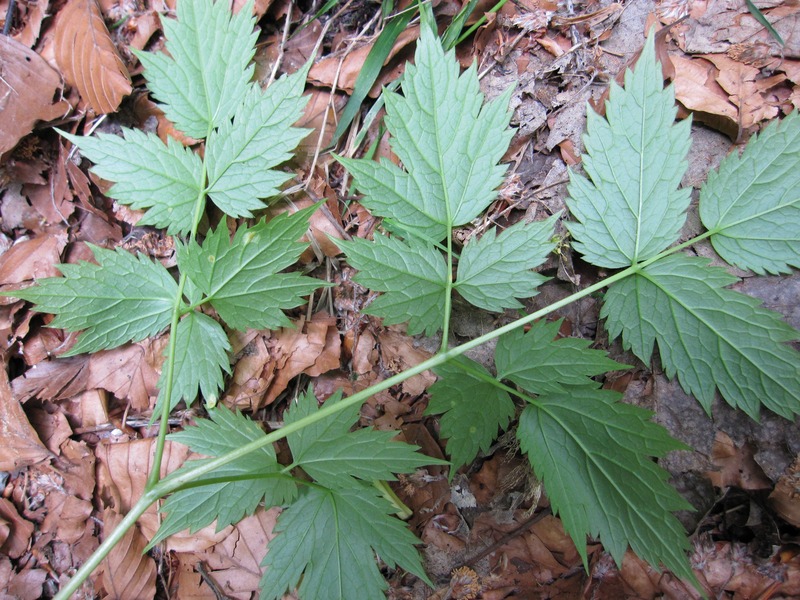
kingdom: Fungi
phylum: Basidiomycota
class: Pucciniomycetes
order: Pucciniales
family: Pucciniaceae
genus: Puccinia
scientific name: Puccinia recondita
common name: Brown rust of wheat
